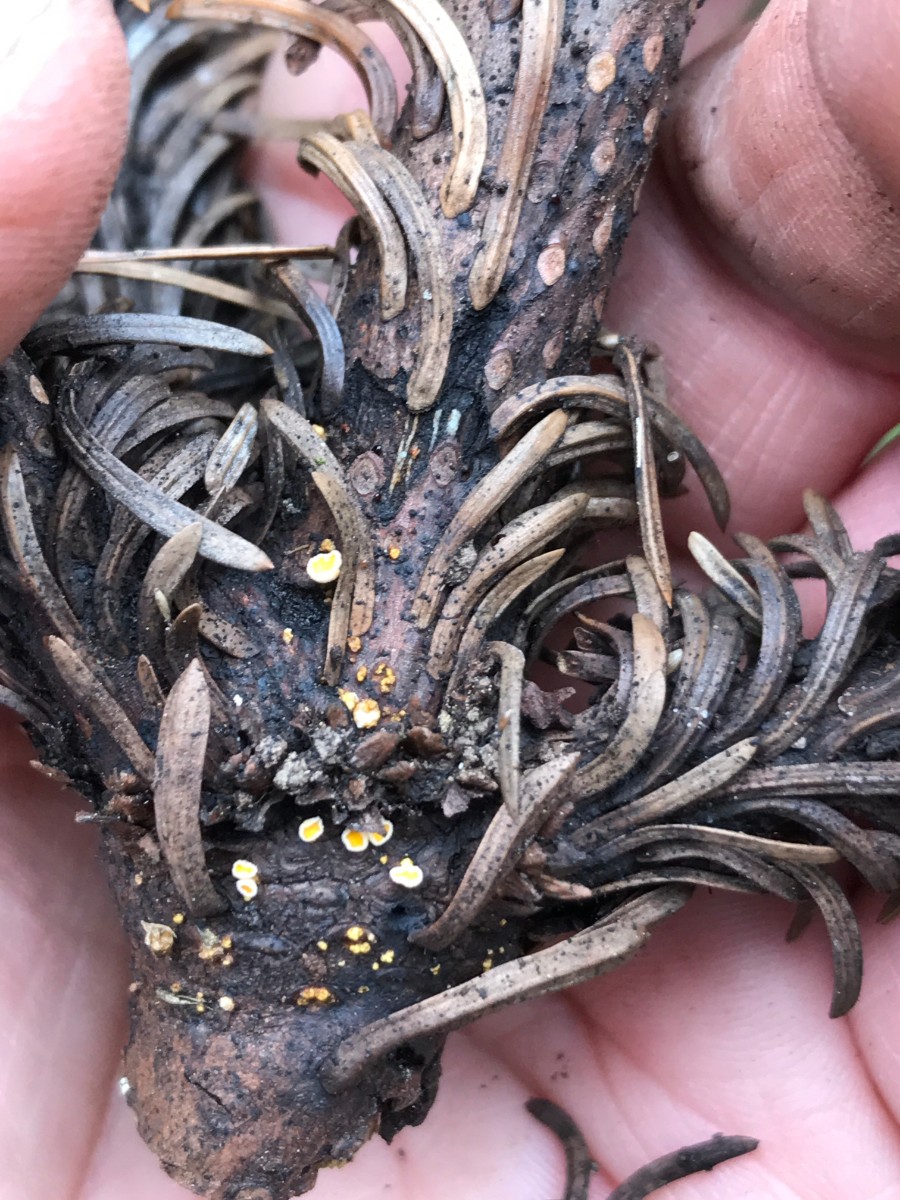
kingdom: Fungi
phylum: Ascomycota
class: Leotiomycetes
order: Helotiales
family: Lachnaceae
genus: Lachnellula
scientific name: Lachnellula
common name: frynseskive
